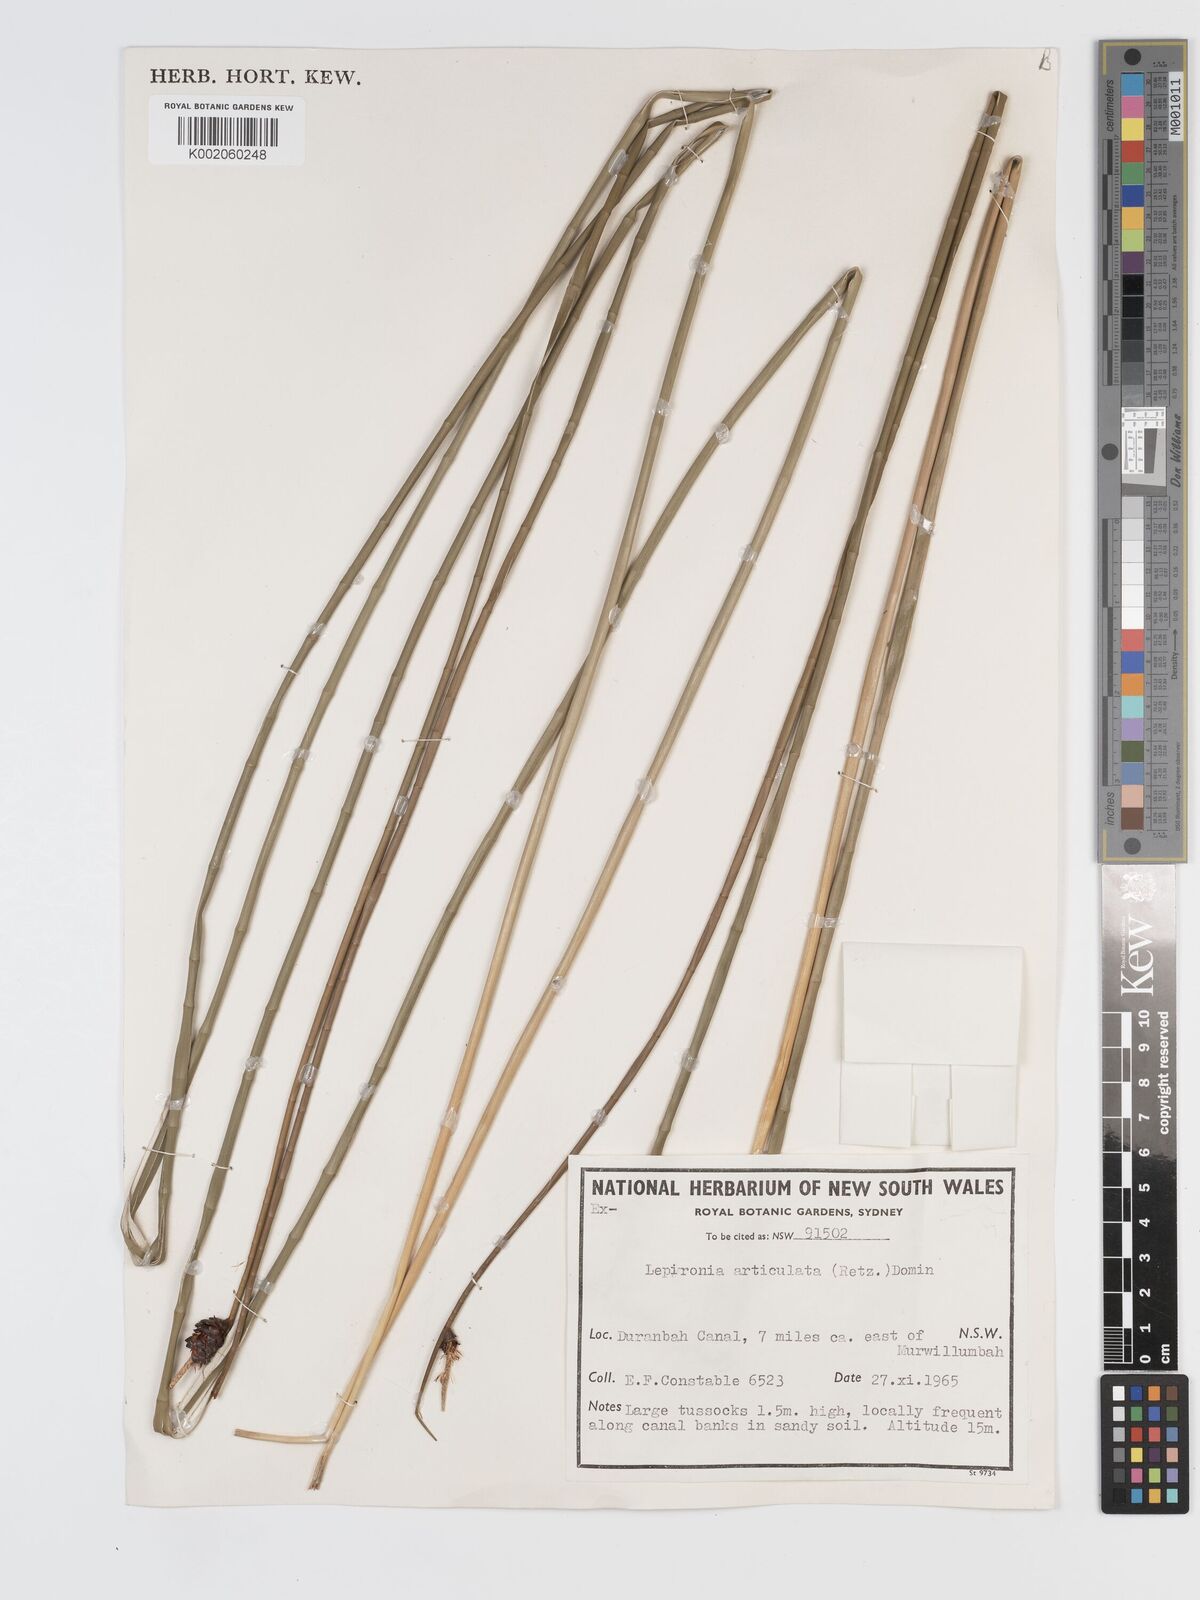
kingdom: Plantae
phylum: Tracheophyta
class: Liliopsida
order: Poales
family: Cyperaceae
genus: Lepironia
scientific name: Lepironia articulata
